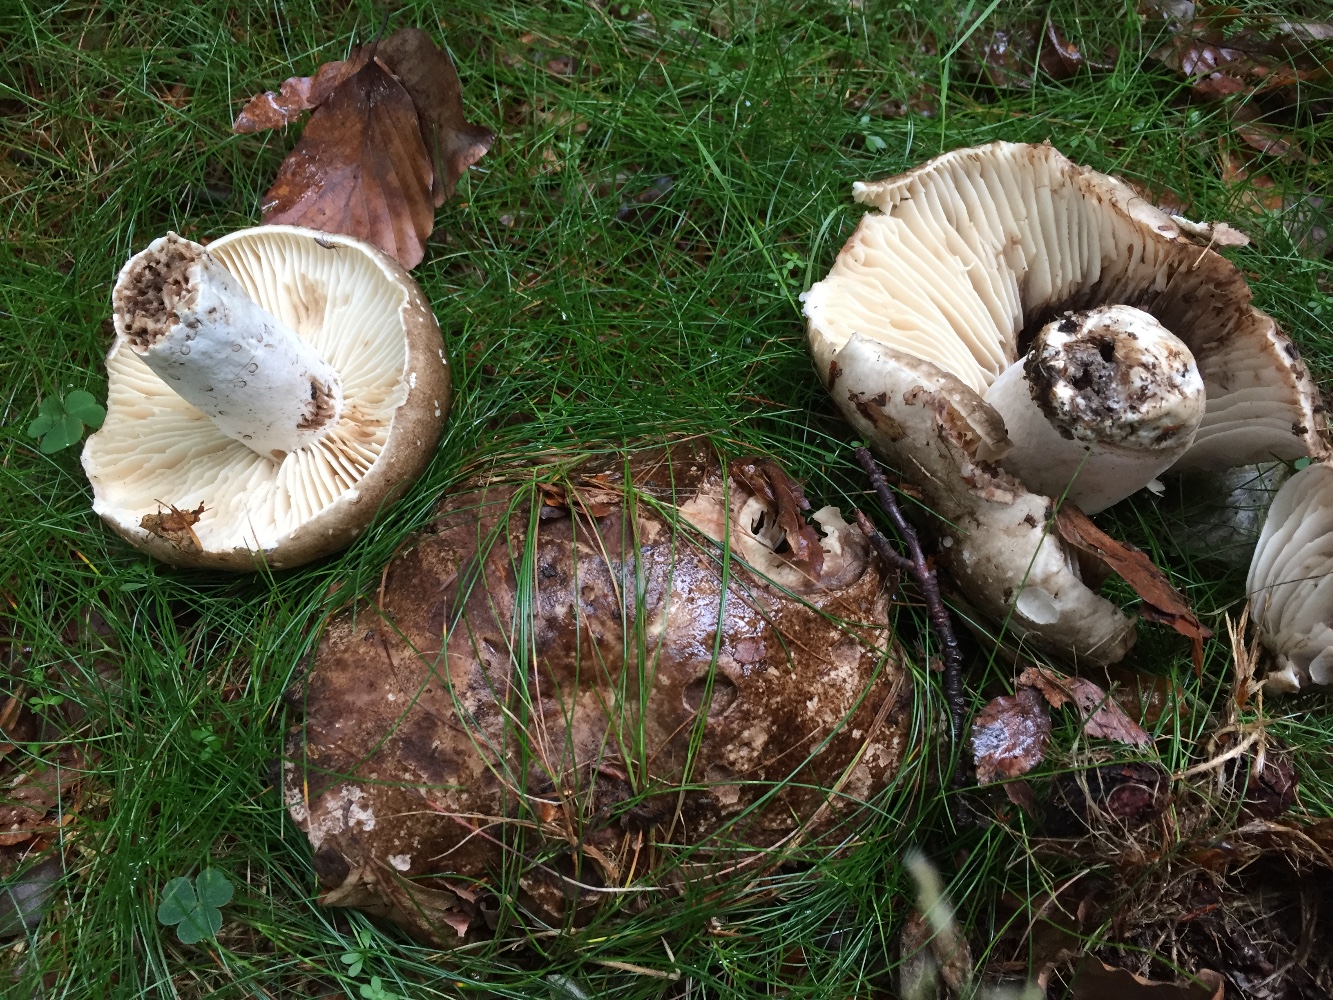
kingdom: Fungi
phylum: Basidiomycota
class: Agaricomycetes
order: Russulales
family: Russulaceae
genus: Russula
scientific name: Russula adusta
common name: sværtende skørhat
